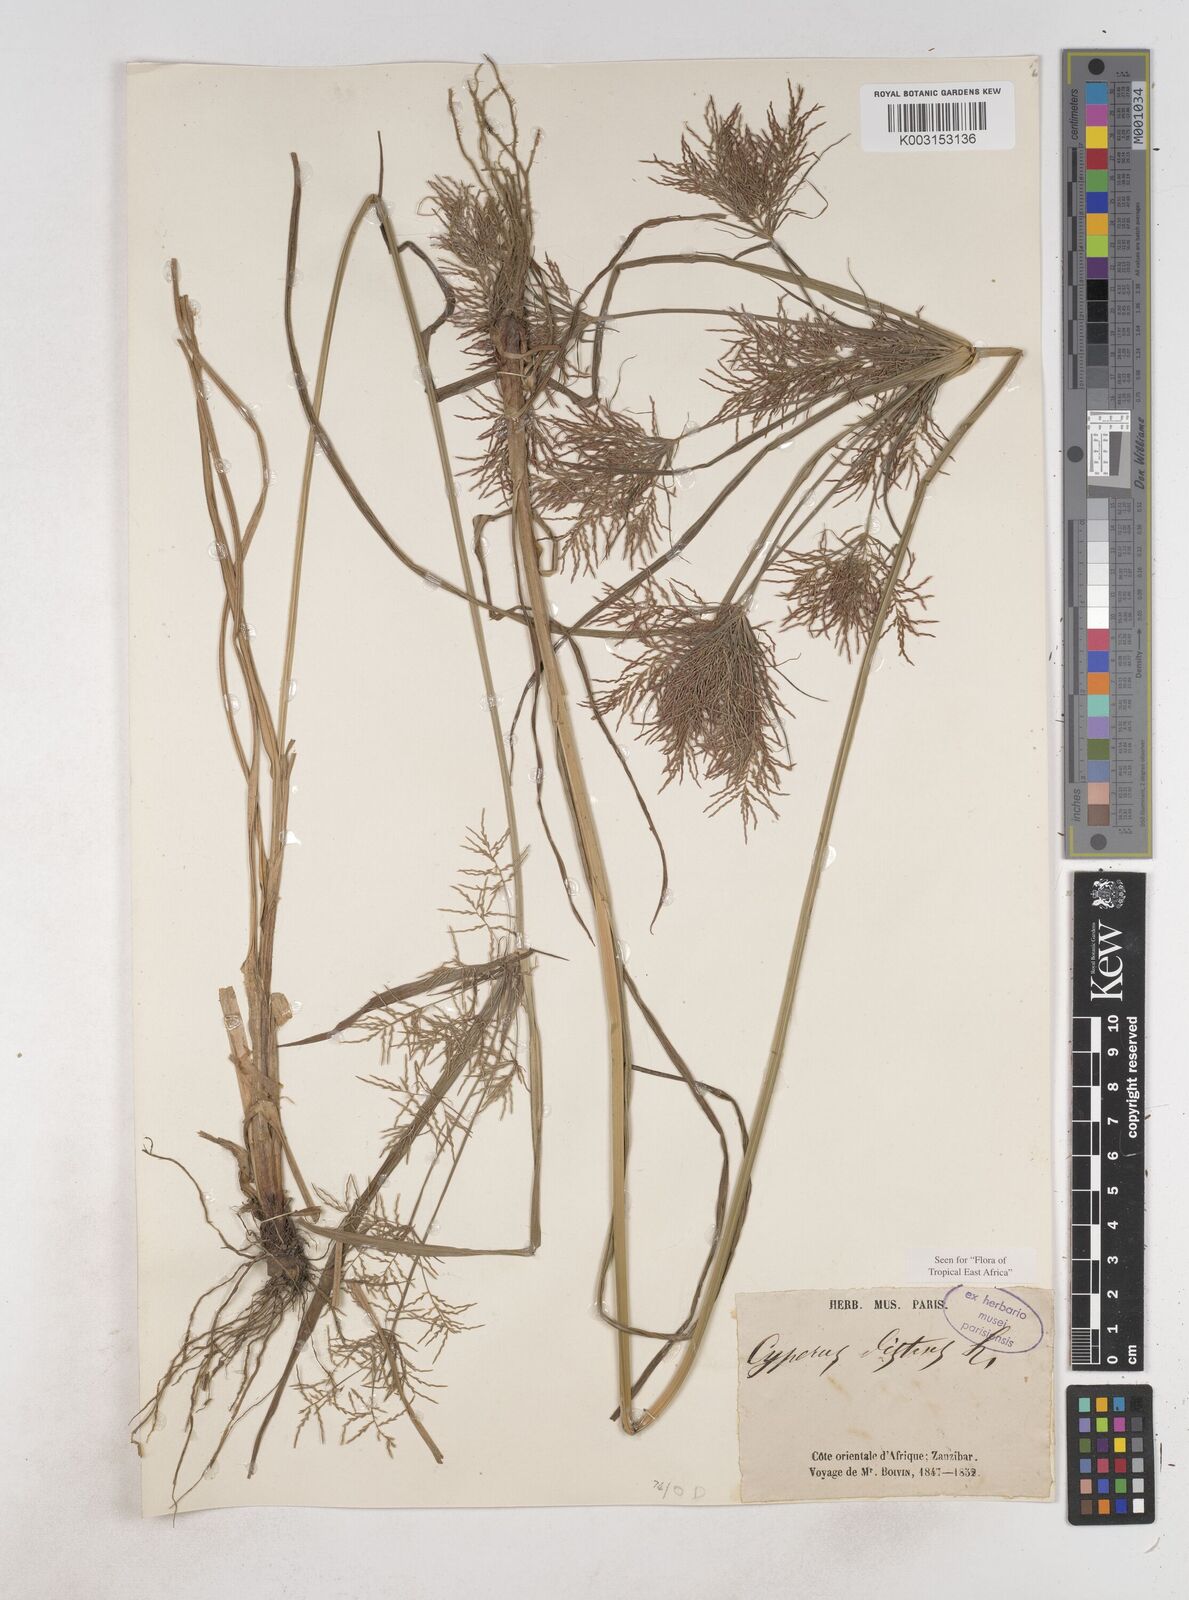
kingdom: Plantae
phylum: Tracheophyta
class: Liliopsida
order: Poales
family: Cyperaceae
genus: Cyperus
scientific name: Cyperus distans
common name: Slender cyperus
